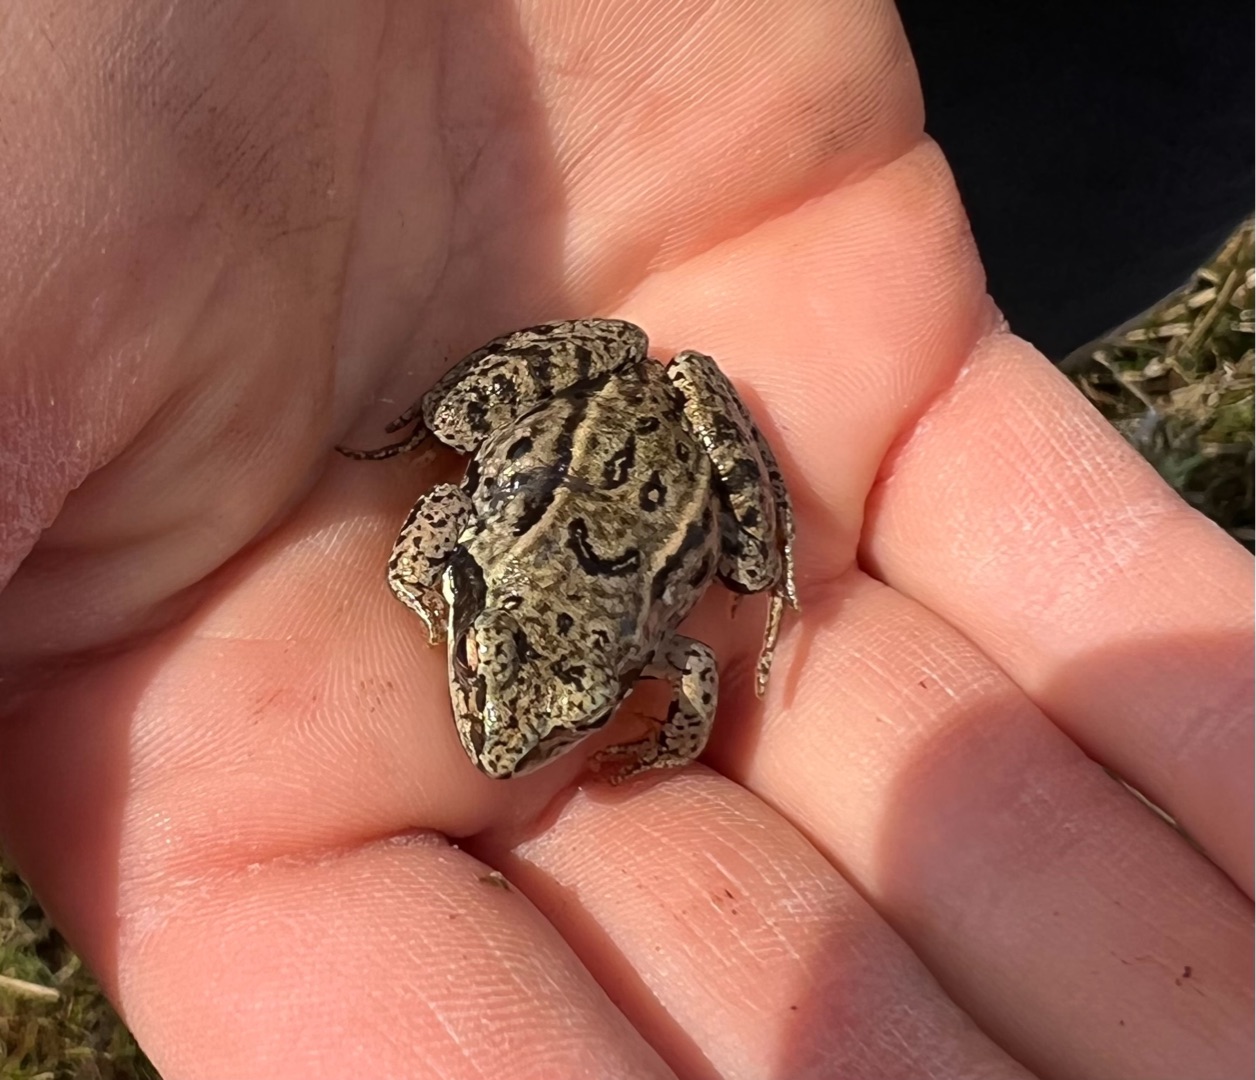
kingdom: Animalia
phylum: Chordata
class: Amphibia
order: Anura
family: Ranidae
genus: Rana
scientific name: Rana arvalis
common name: Spidssnudet frø
